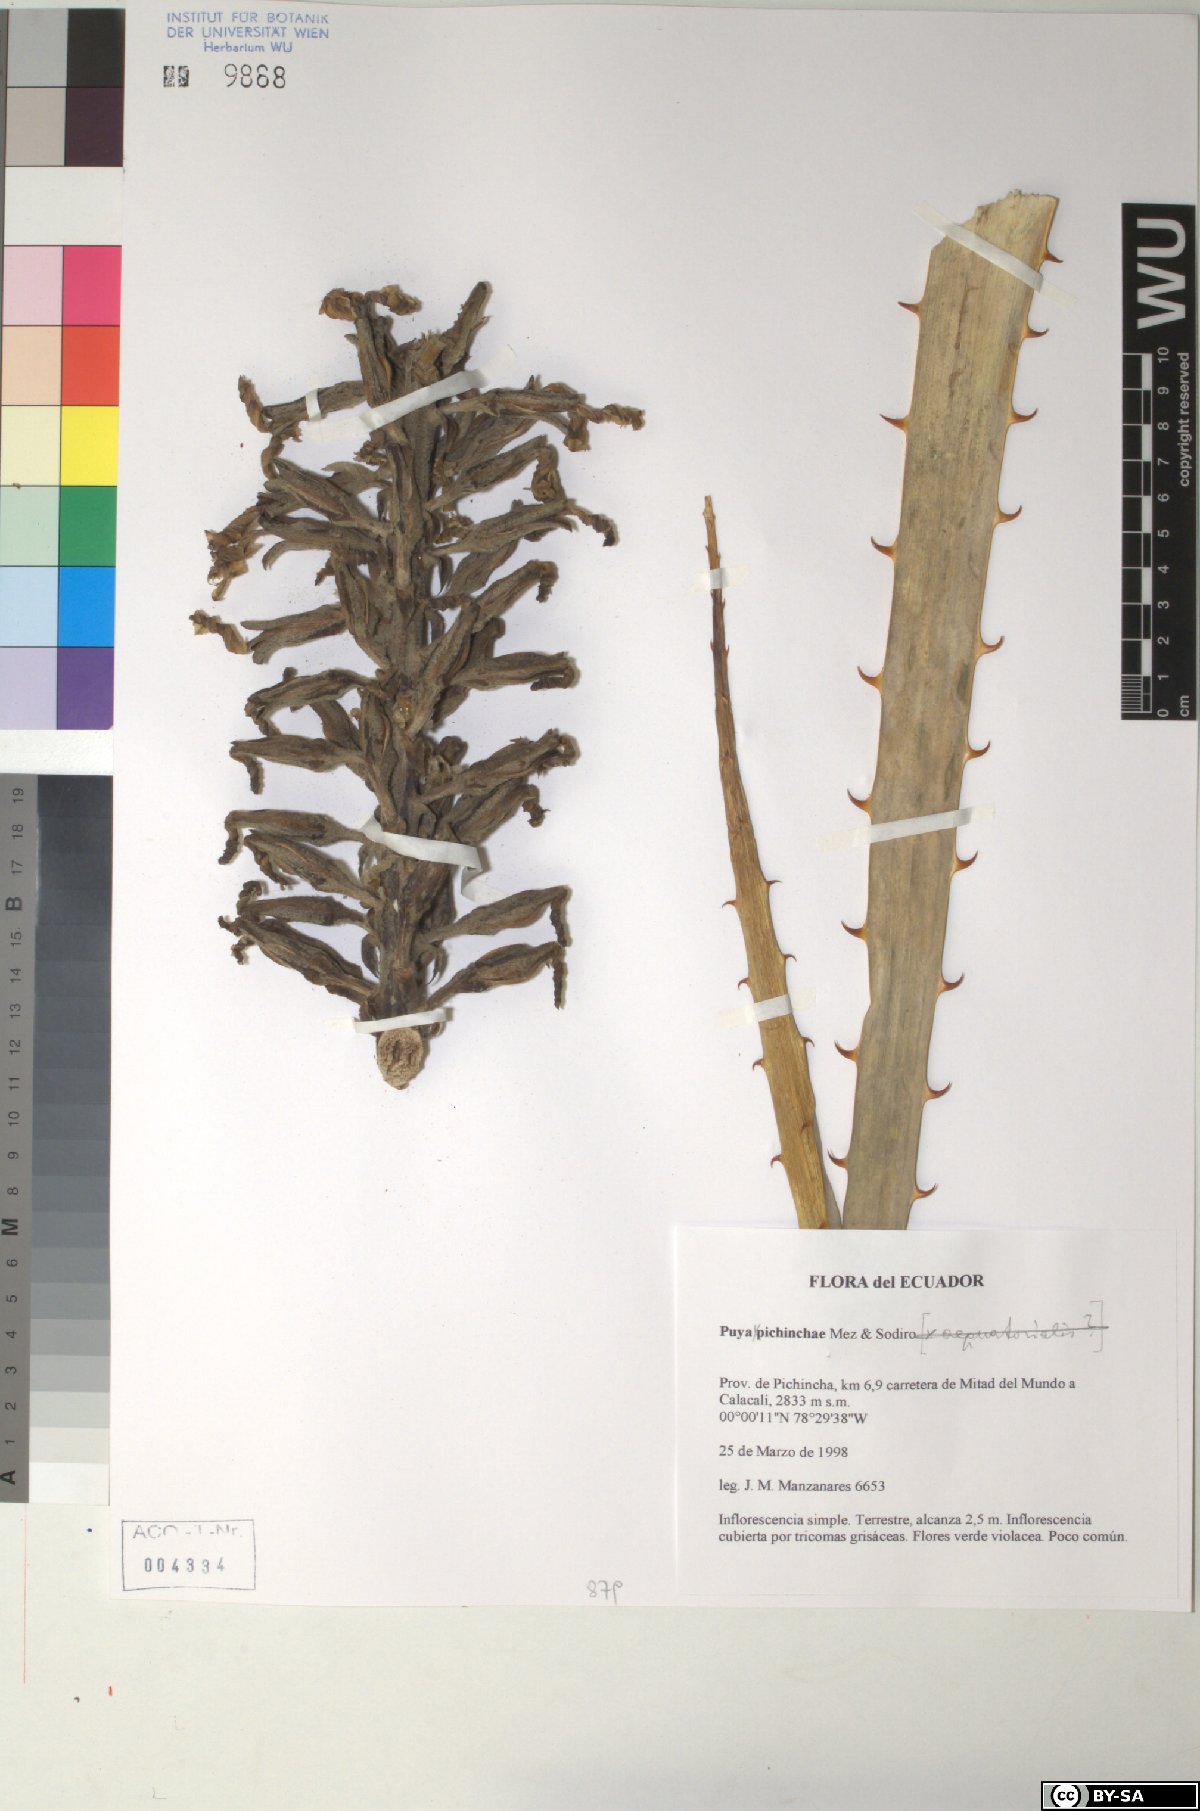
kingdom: Plantae
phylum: Tracheophyta
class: Liliopsida
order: Poales
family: Bromeliaceae
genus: Puya
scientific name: Puya pichinchae
